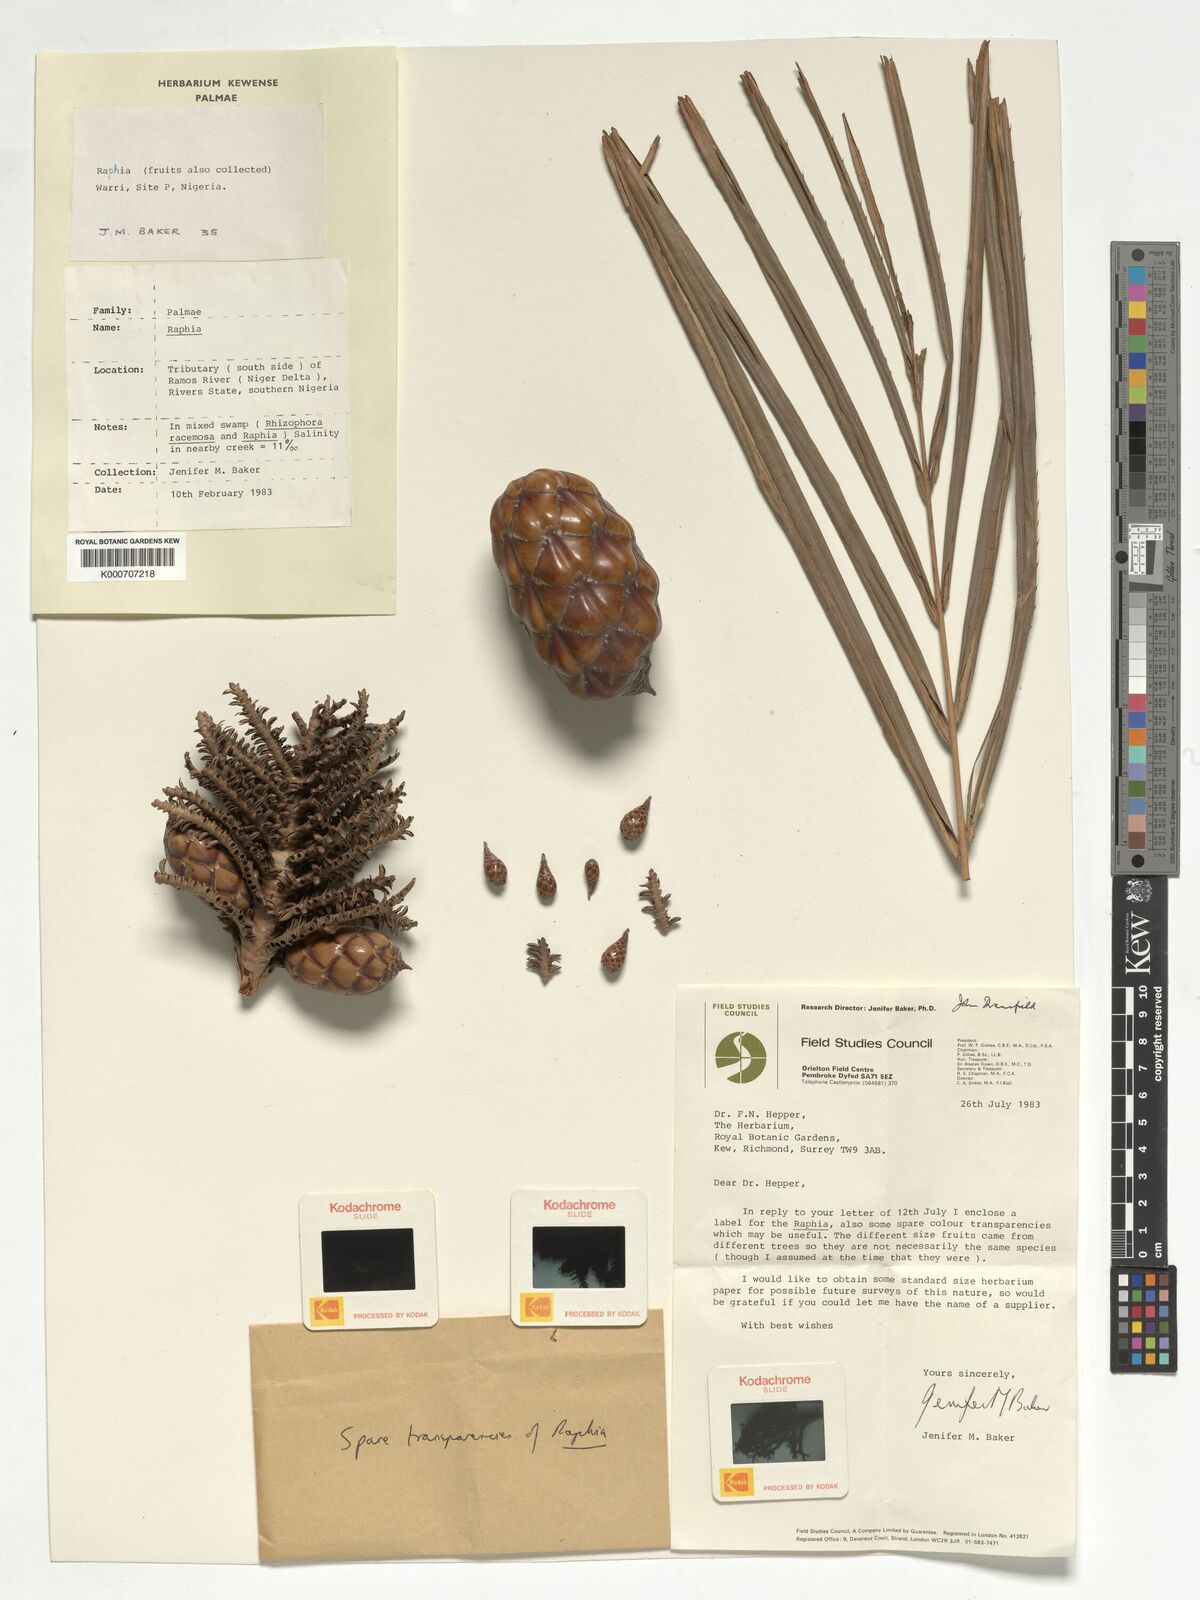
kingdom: Plantae
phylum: Tracheophyta
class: Liliopsida
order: Arecales
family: Arecaceae
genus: Raphia
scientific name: Raphia
